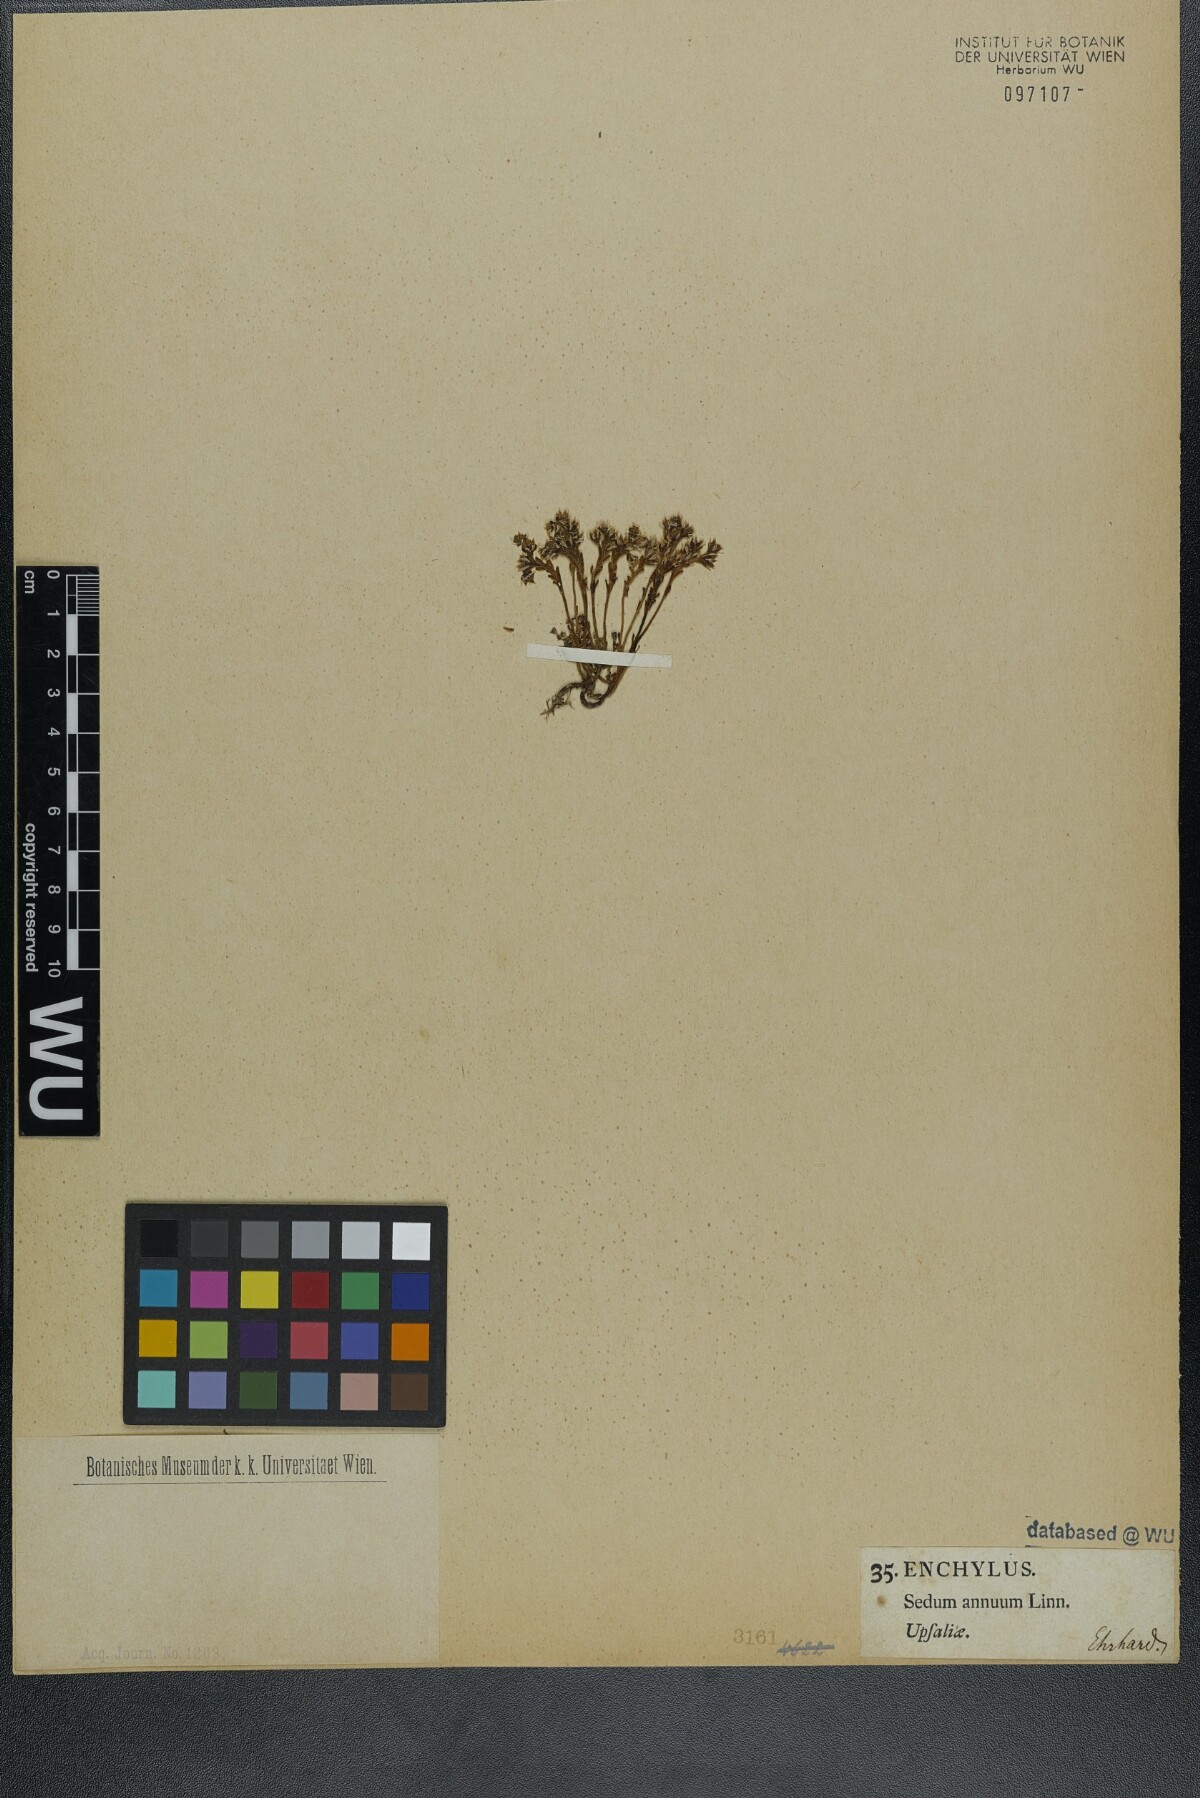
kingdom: Plantae
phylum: Tracheophyta
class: Magnoliopsida
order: Saxifragales
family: Crassulaceae
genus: Sedum
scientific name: Sedum annuum
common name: Annual stonecrop
